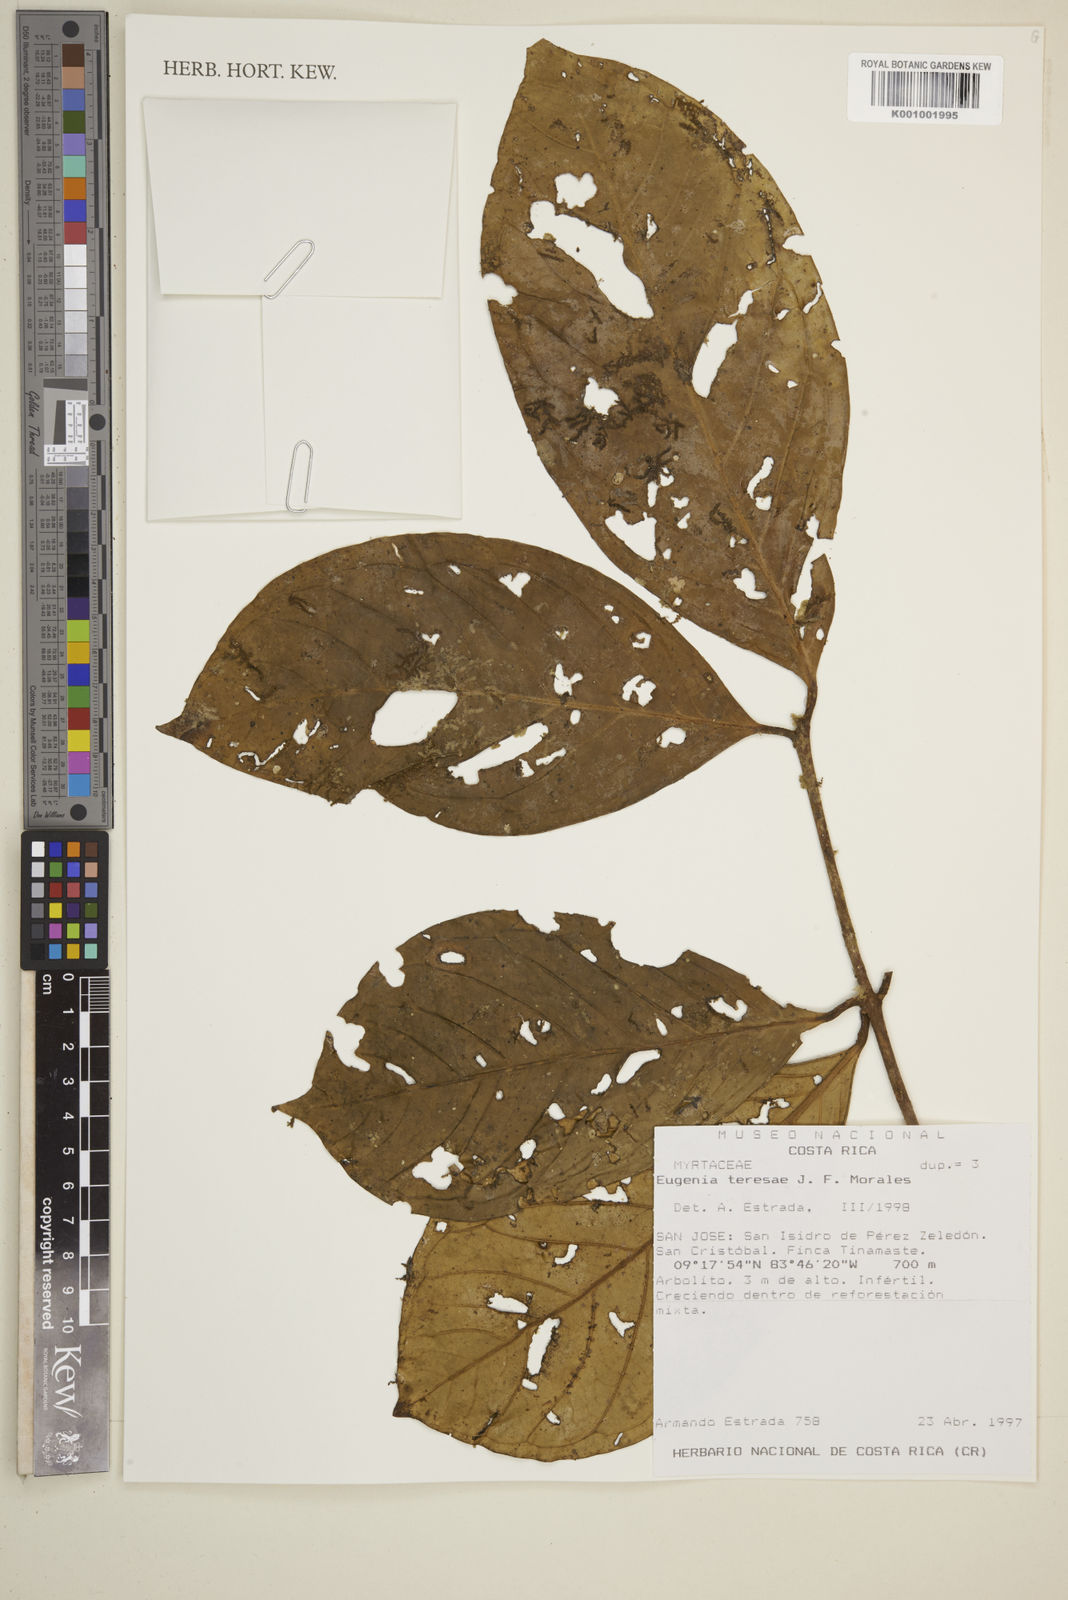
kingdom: Plantae
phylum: Tracheophyta
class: Magnoliopsida
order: Myrtales
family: Myrtaceae
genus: Eugenia
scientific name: Eugenia teresae
